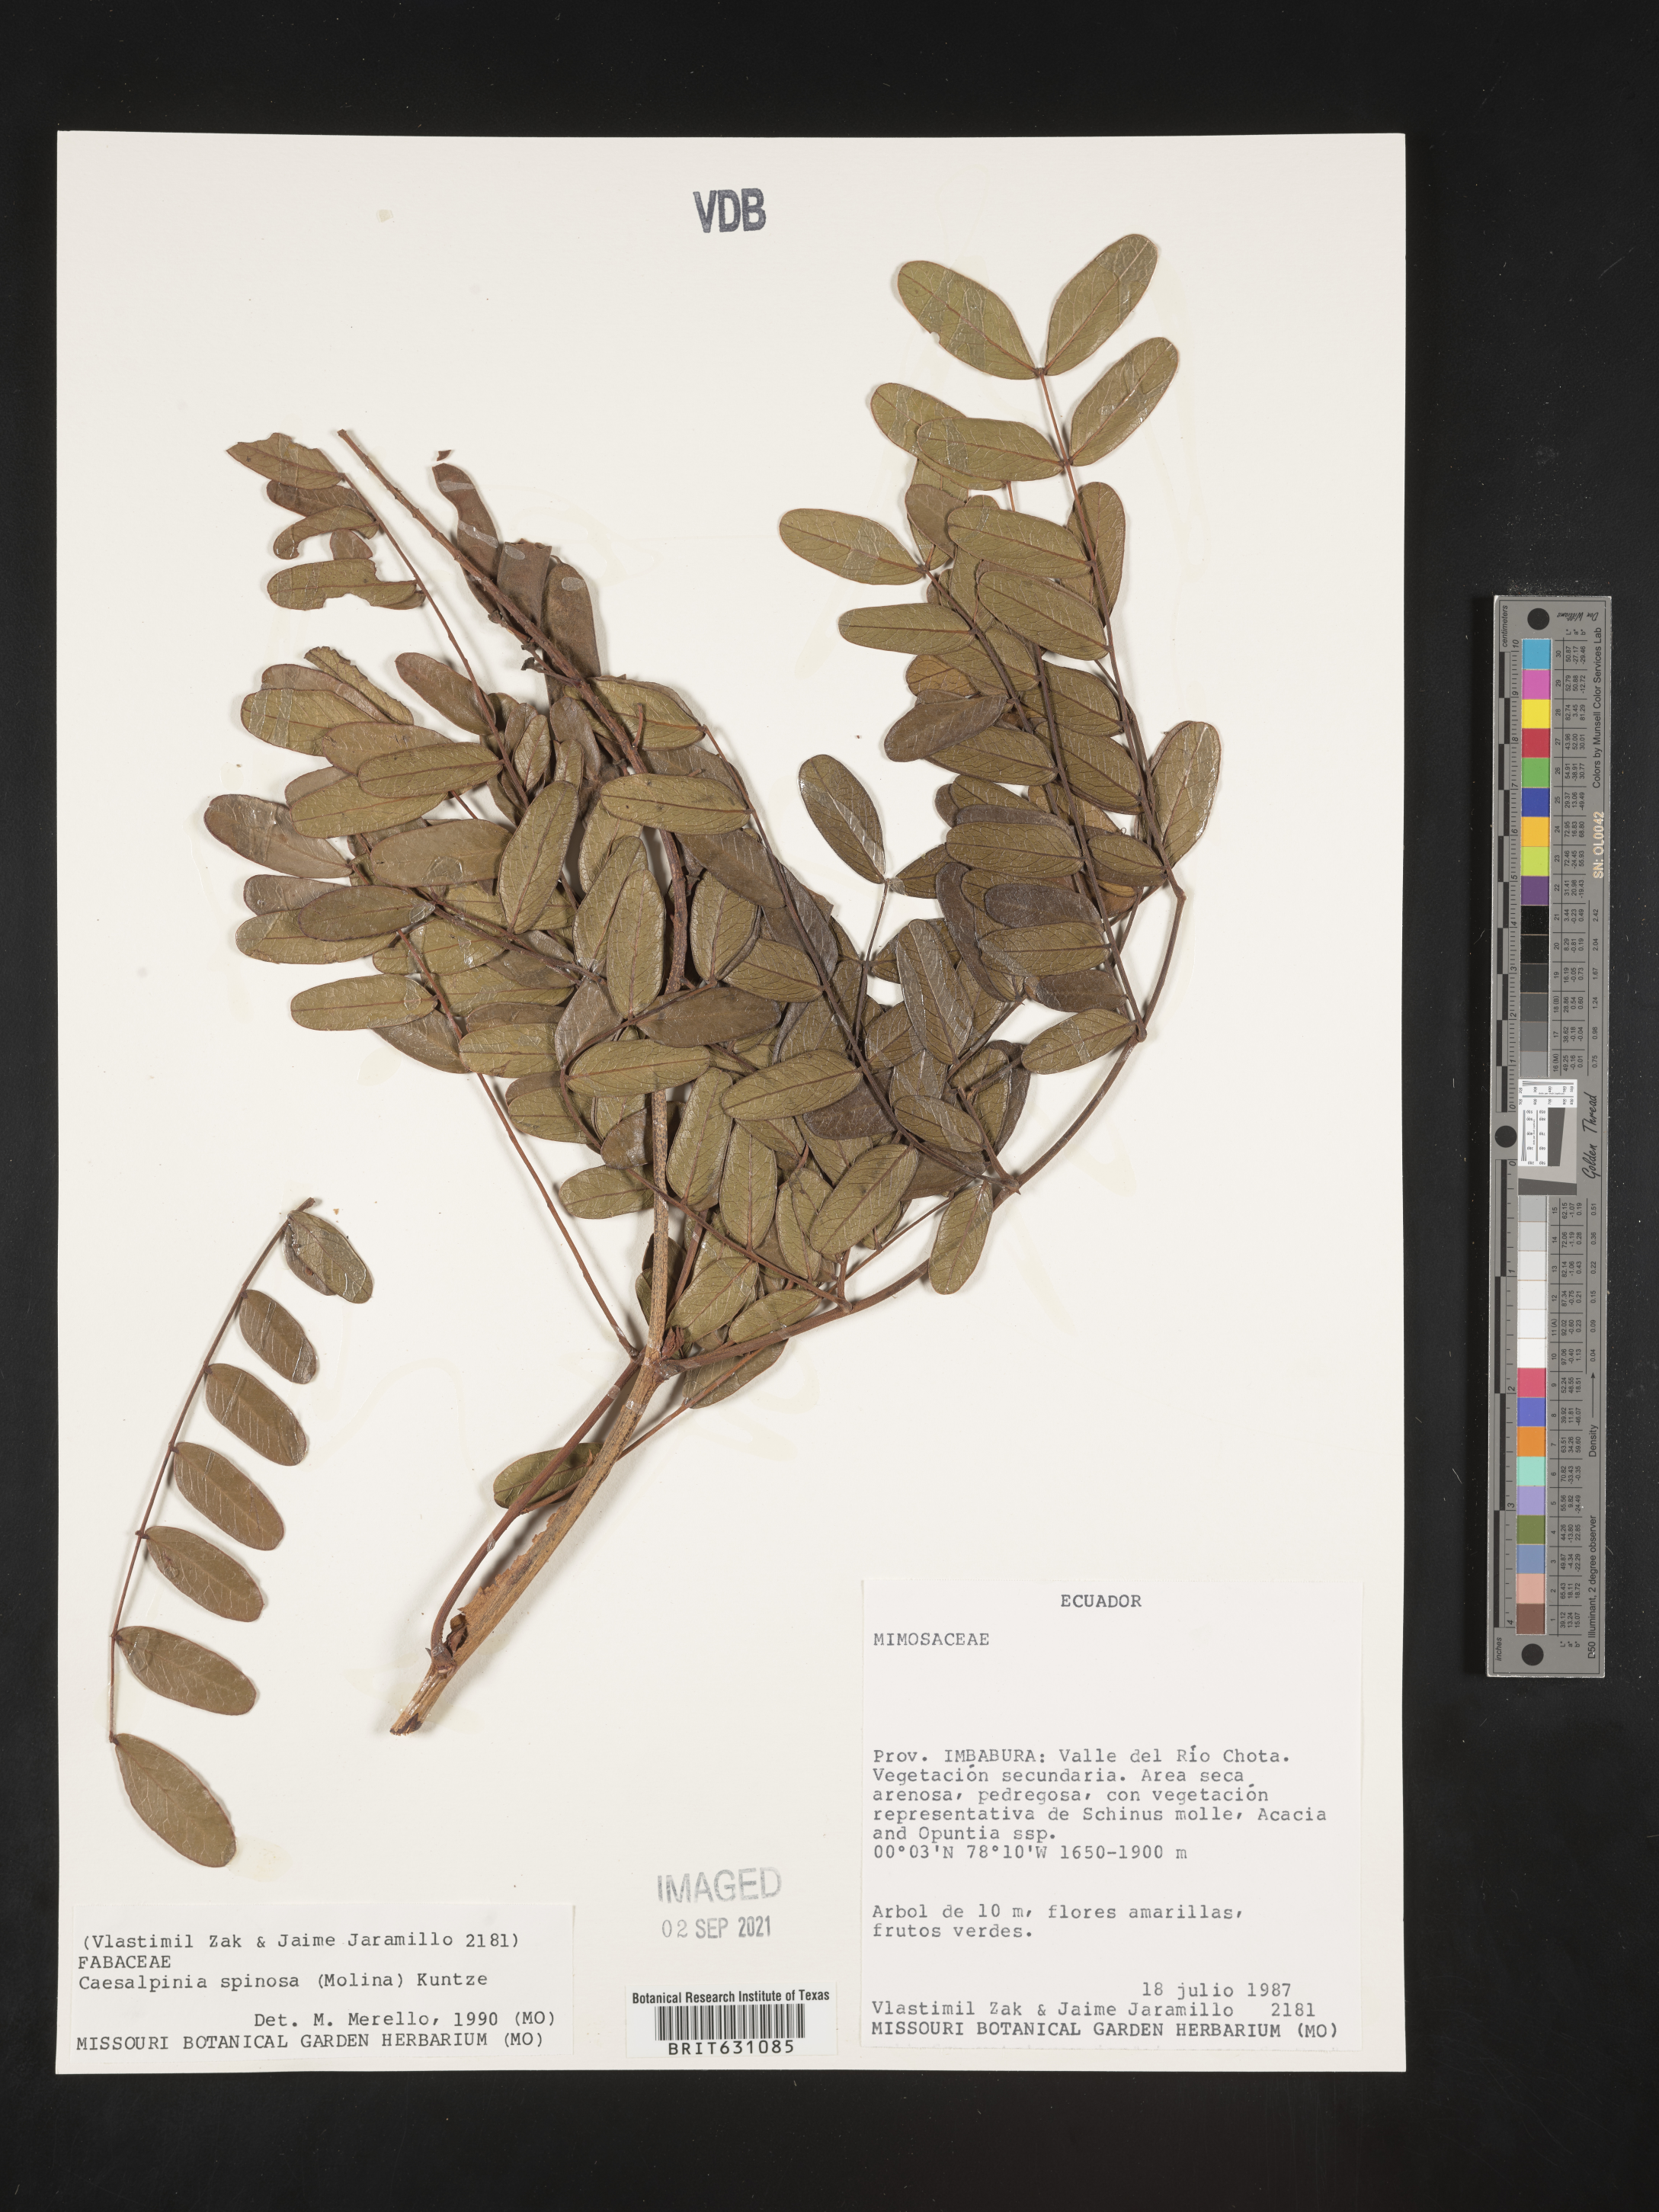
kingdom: Plantae
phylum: Tracheophyta
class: Magnoliopsida
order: Fabales
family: Fabaceae
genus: Caesalpinia
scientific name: Caesalpinia
